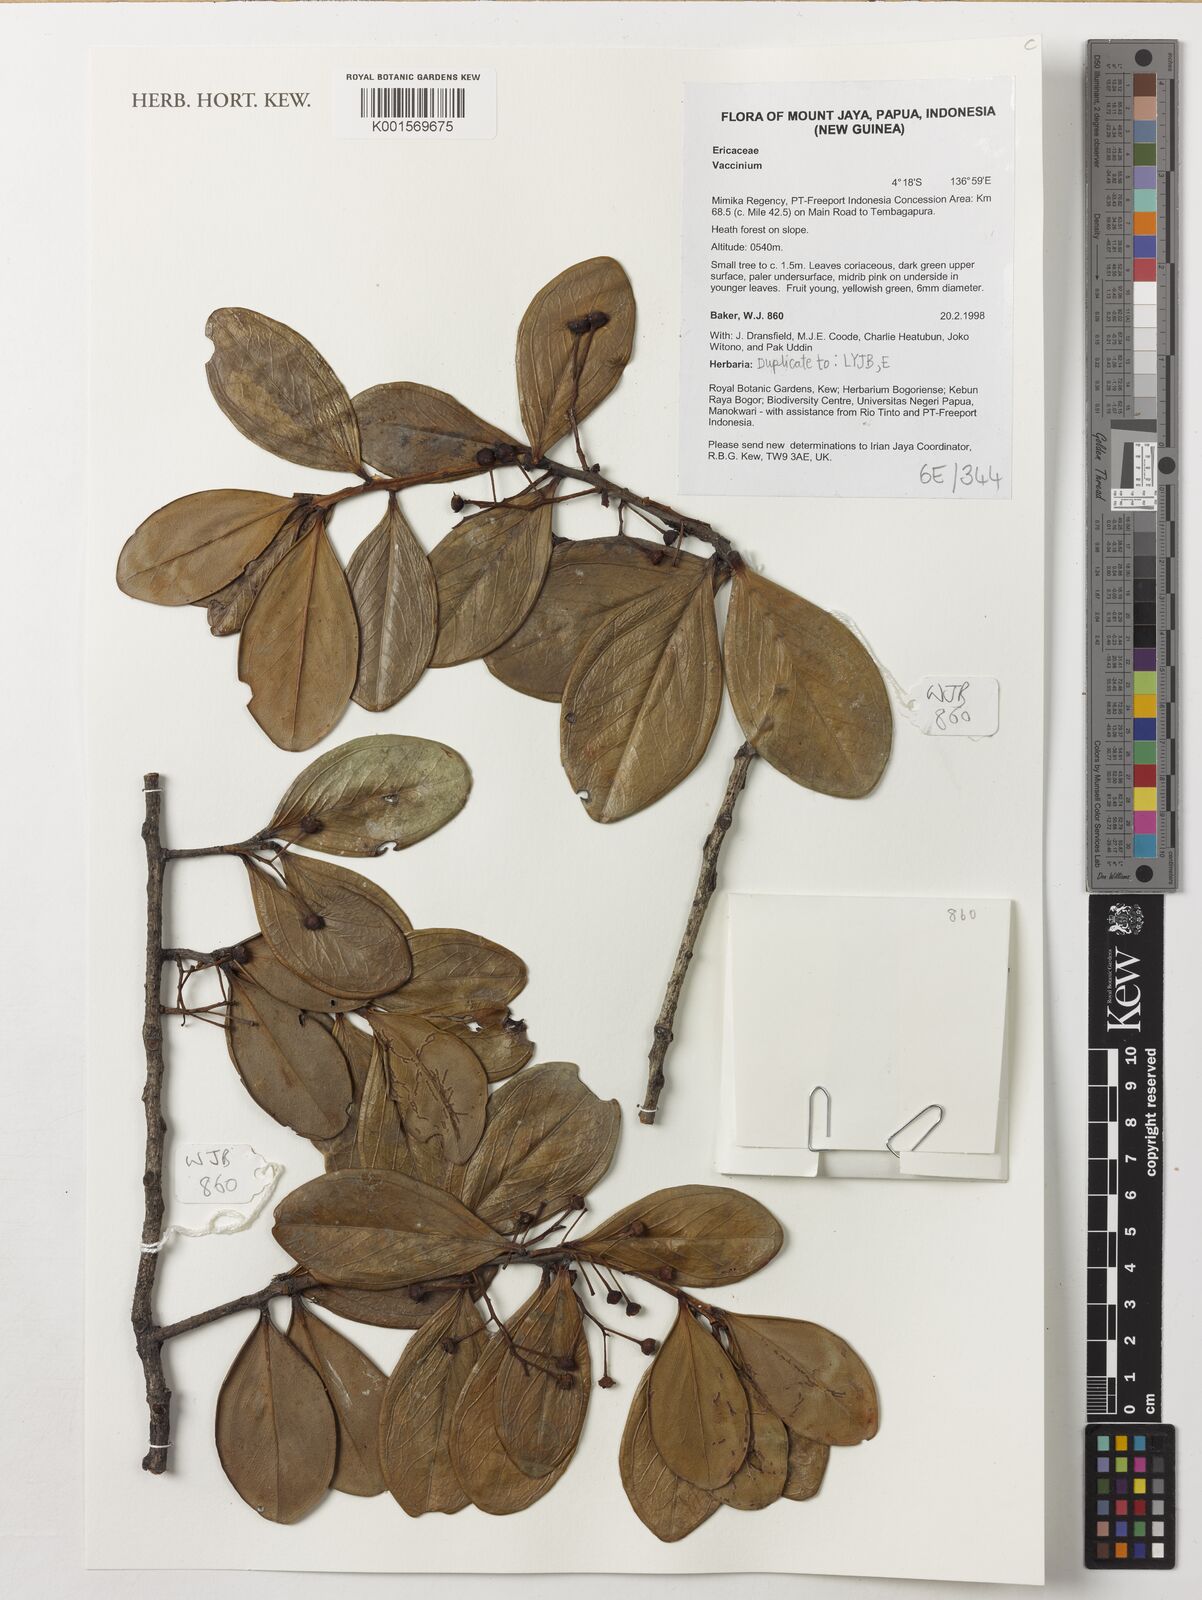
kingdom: Plantae
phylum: Tracheophyta
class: Magnoliopsida
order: Ericales
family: Ericaceae
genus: Vaccinium
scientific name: Vaccinium
